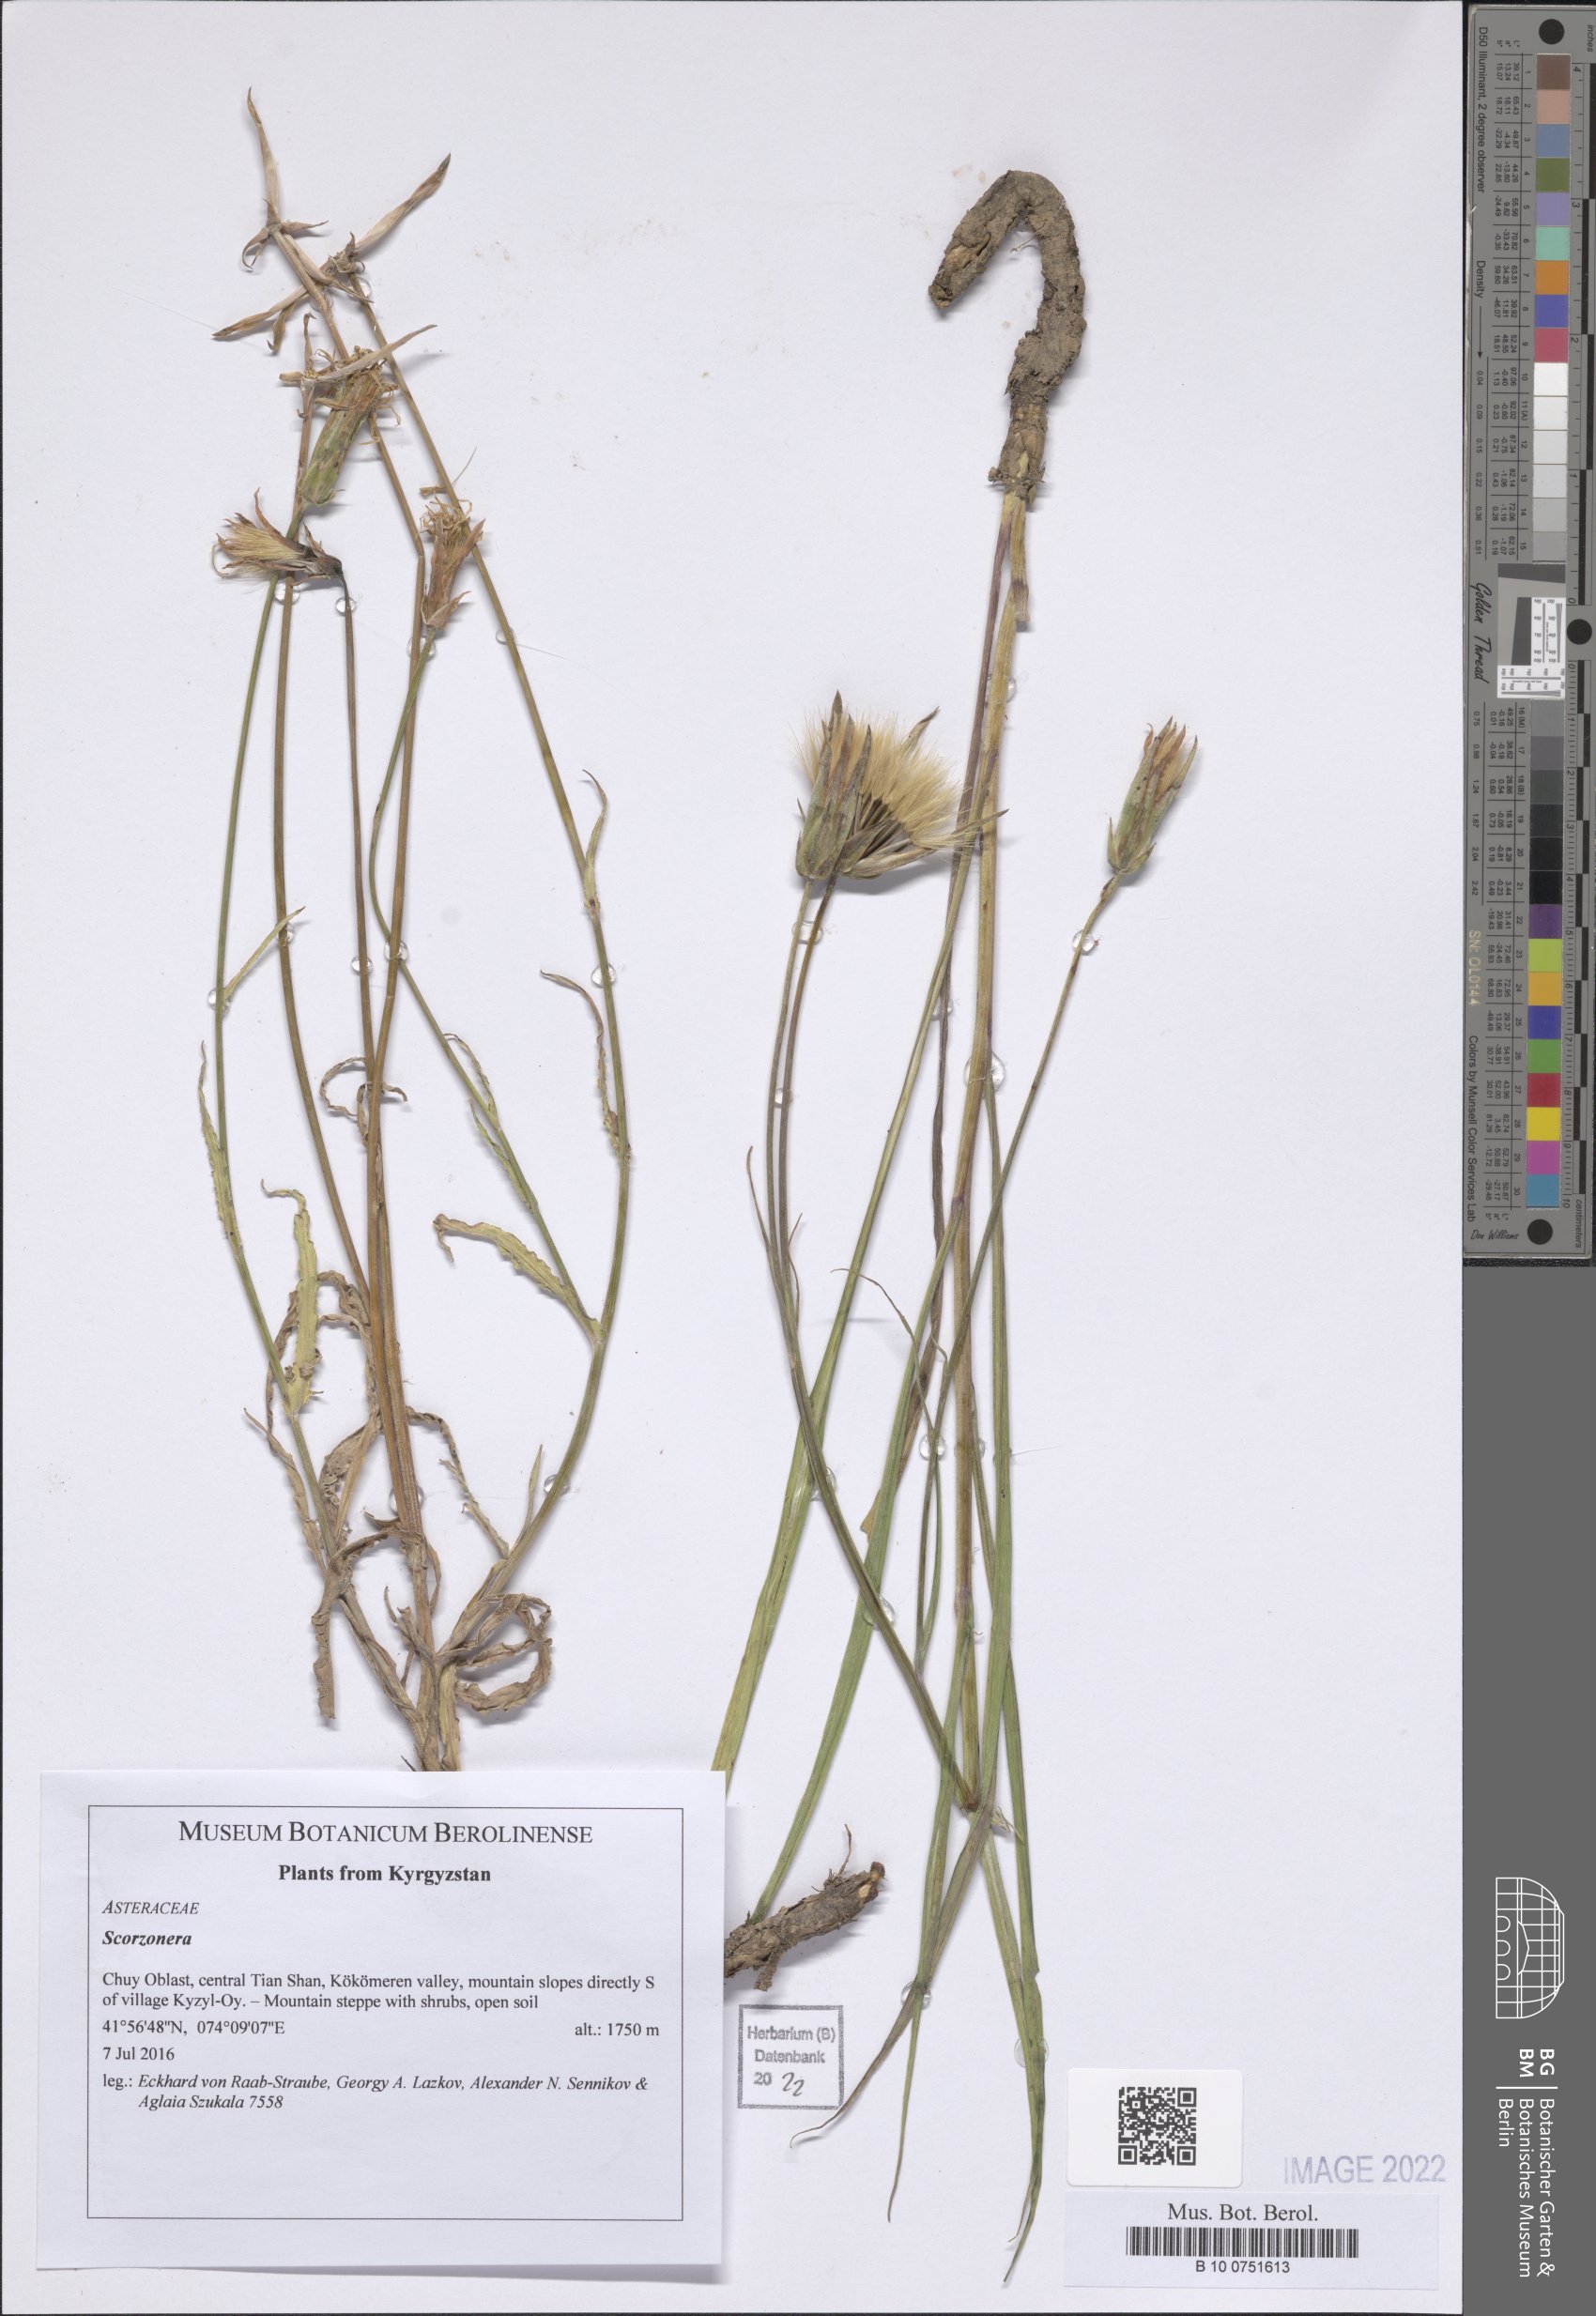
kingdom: Plantae
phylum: Tracheophyta
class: Magnoliopsida
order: Asterales
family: Asteraceae
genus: Scorzonera
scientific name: Scorzonera
